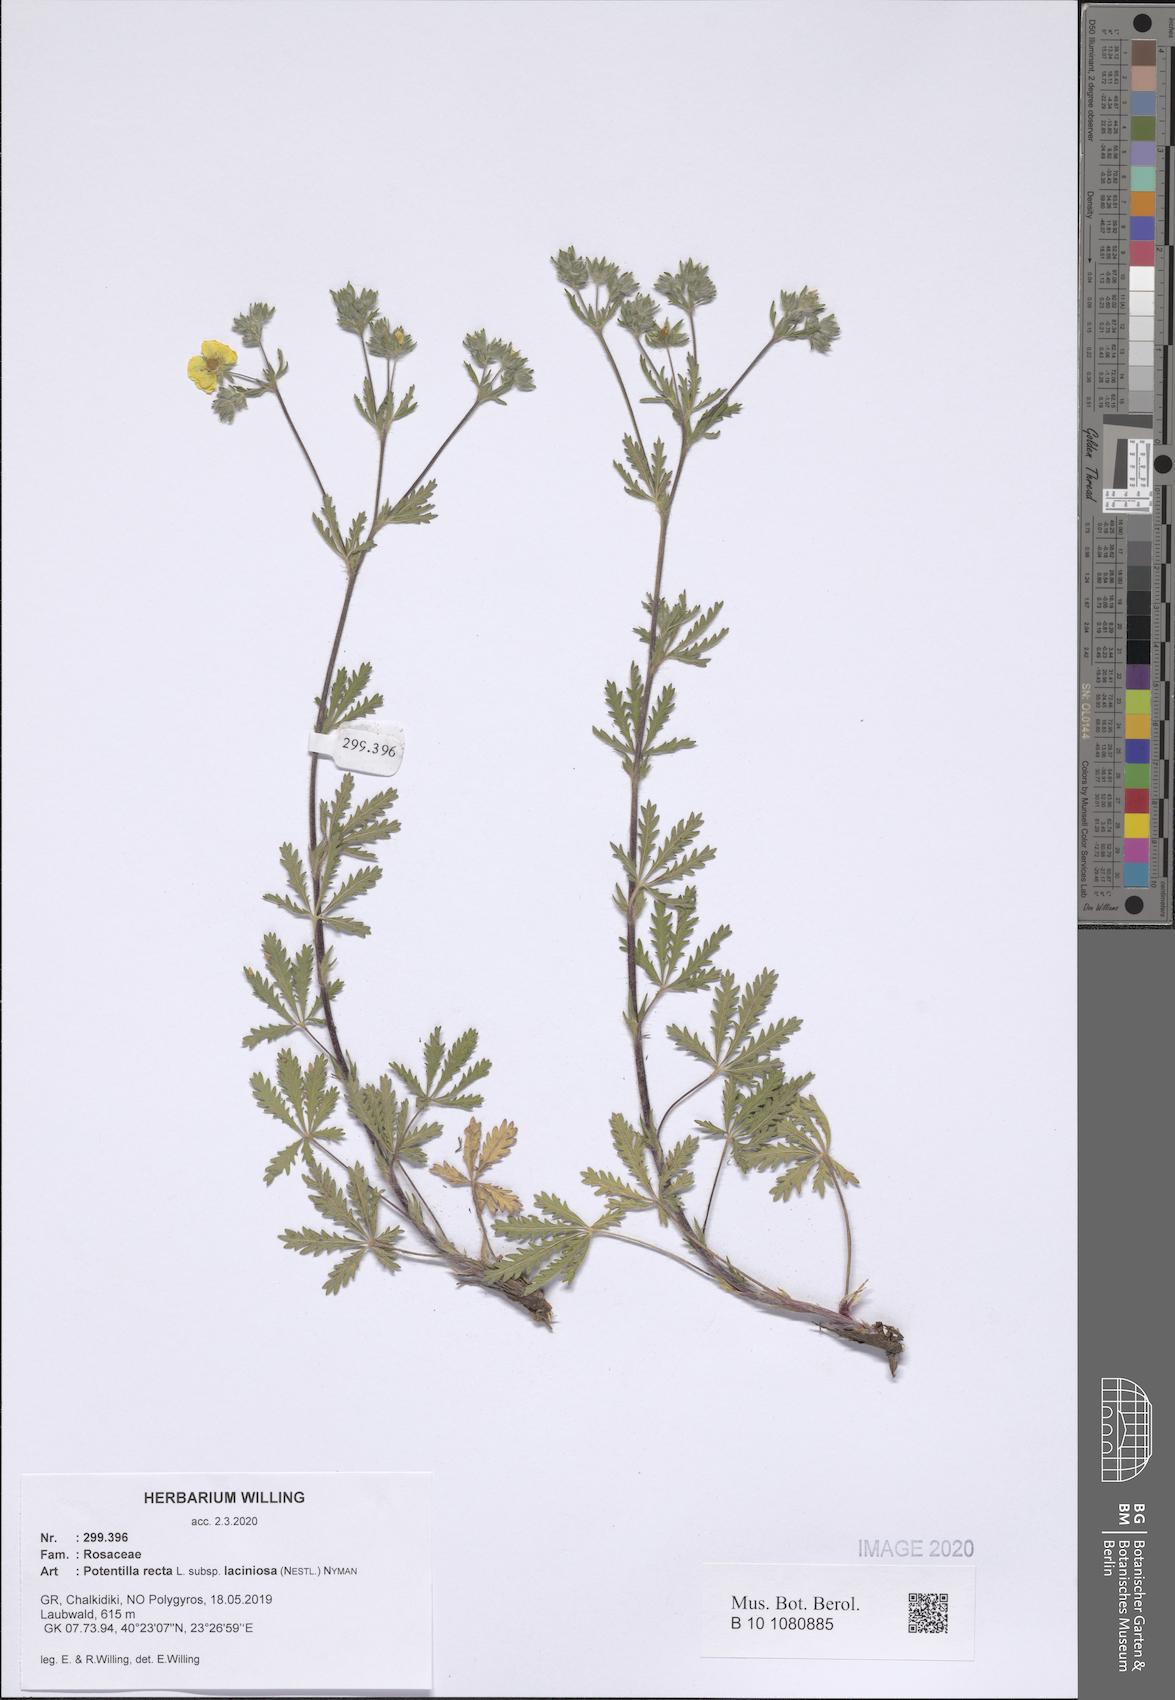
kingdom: Plantae
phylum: Tracheophyta
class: Magnoliopsida
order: Rosales
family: Rosaceae
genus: Potentilla
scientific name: Potentilla recta
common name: Sulphur cinquefoil
